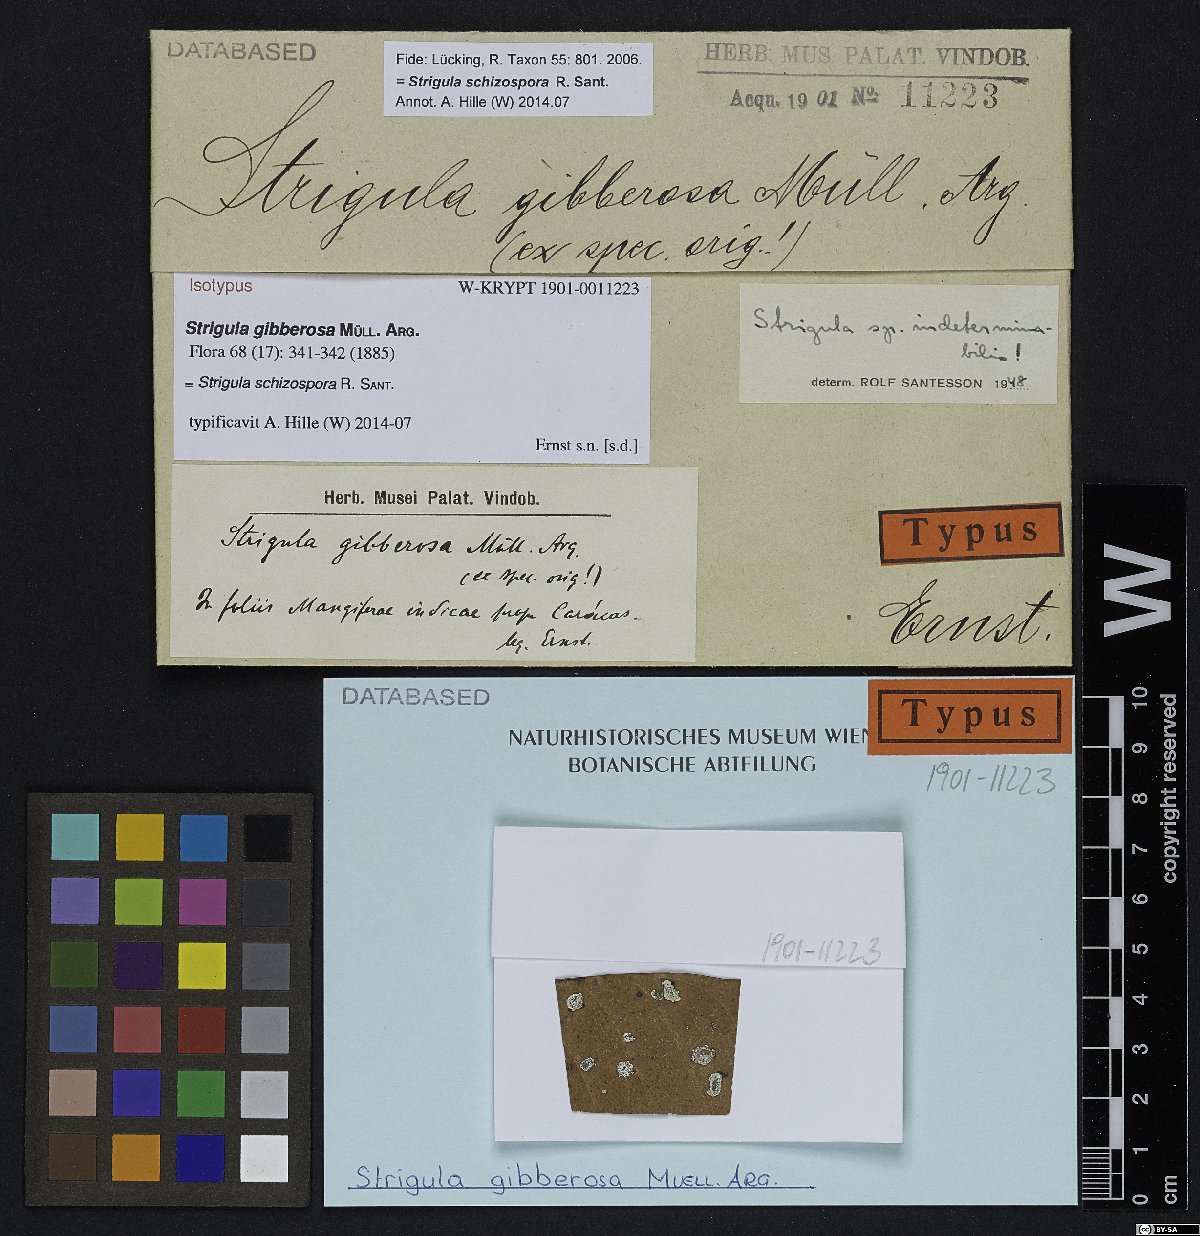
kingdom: Fungi
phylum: Ascomycota
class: Dothideomycetes
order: Strigulales
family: Strigulaceae
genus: Strigula
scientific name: Strigula
